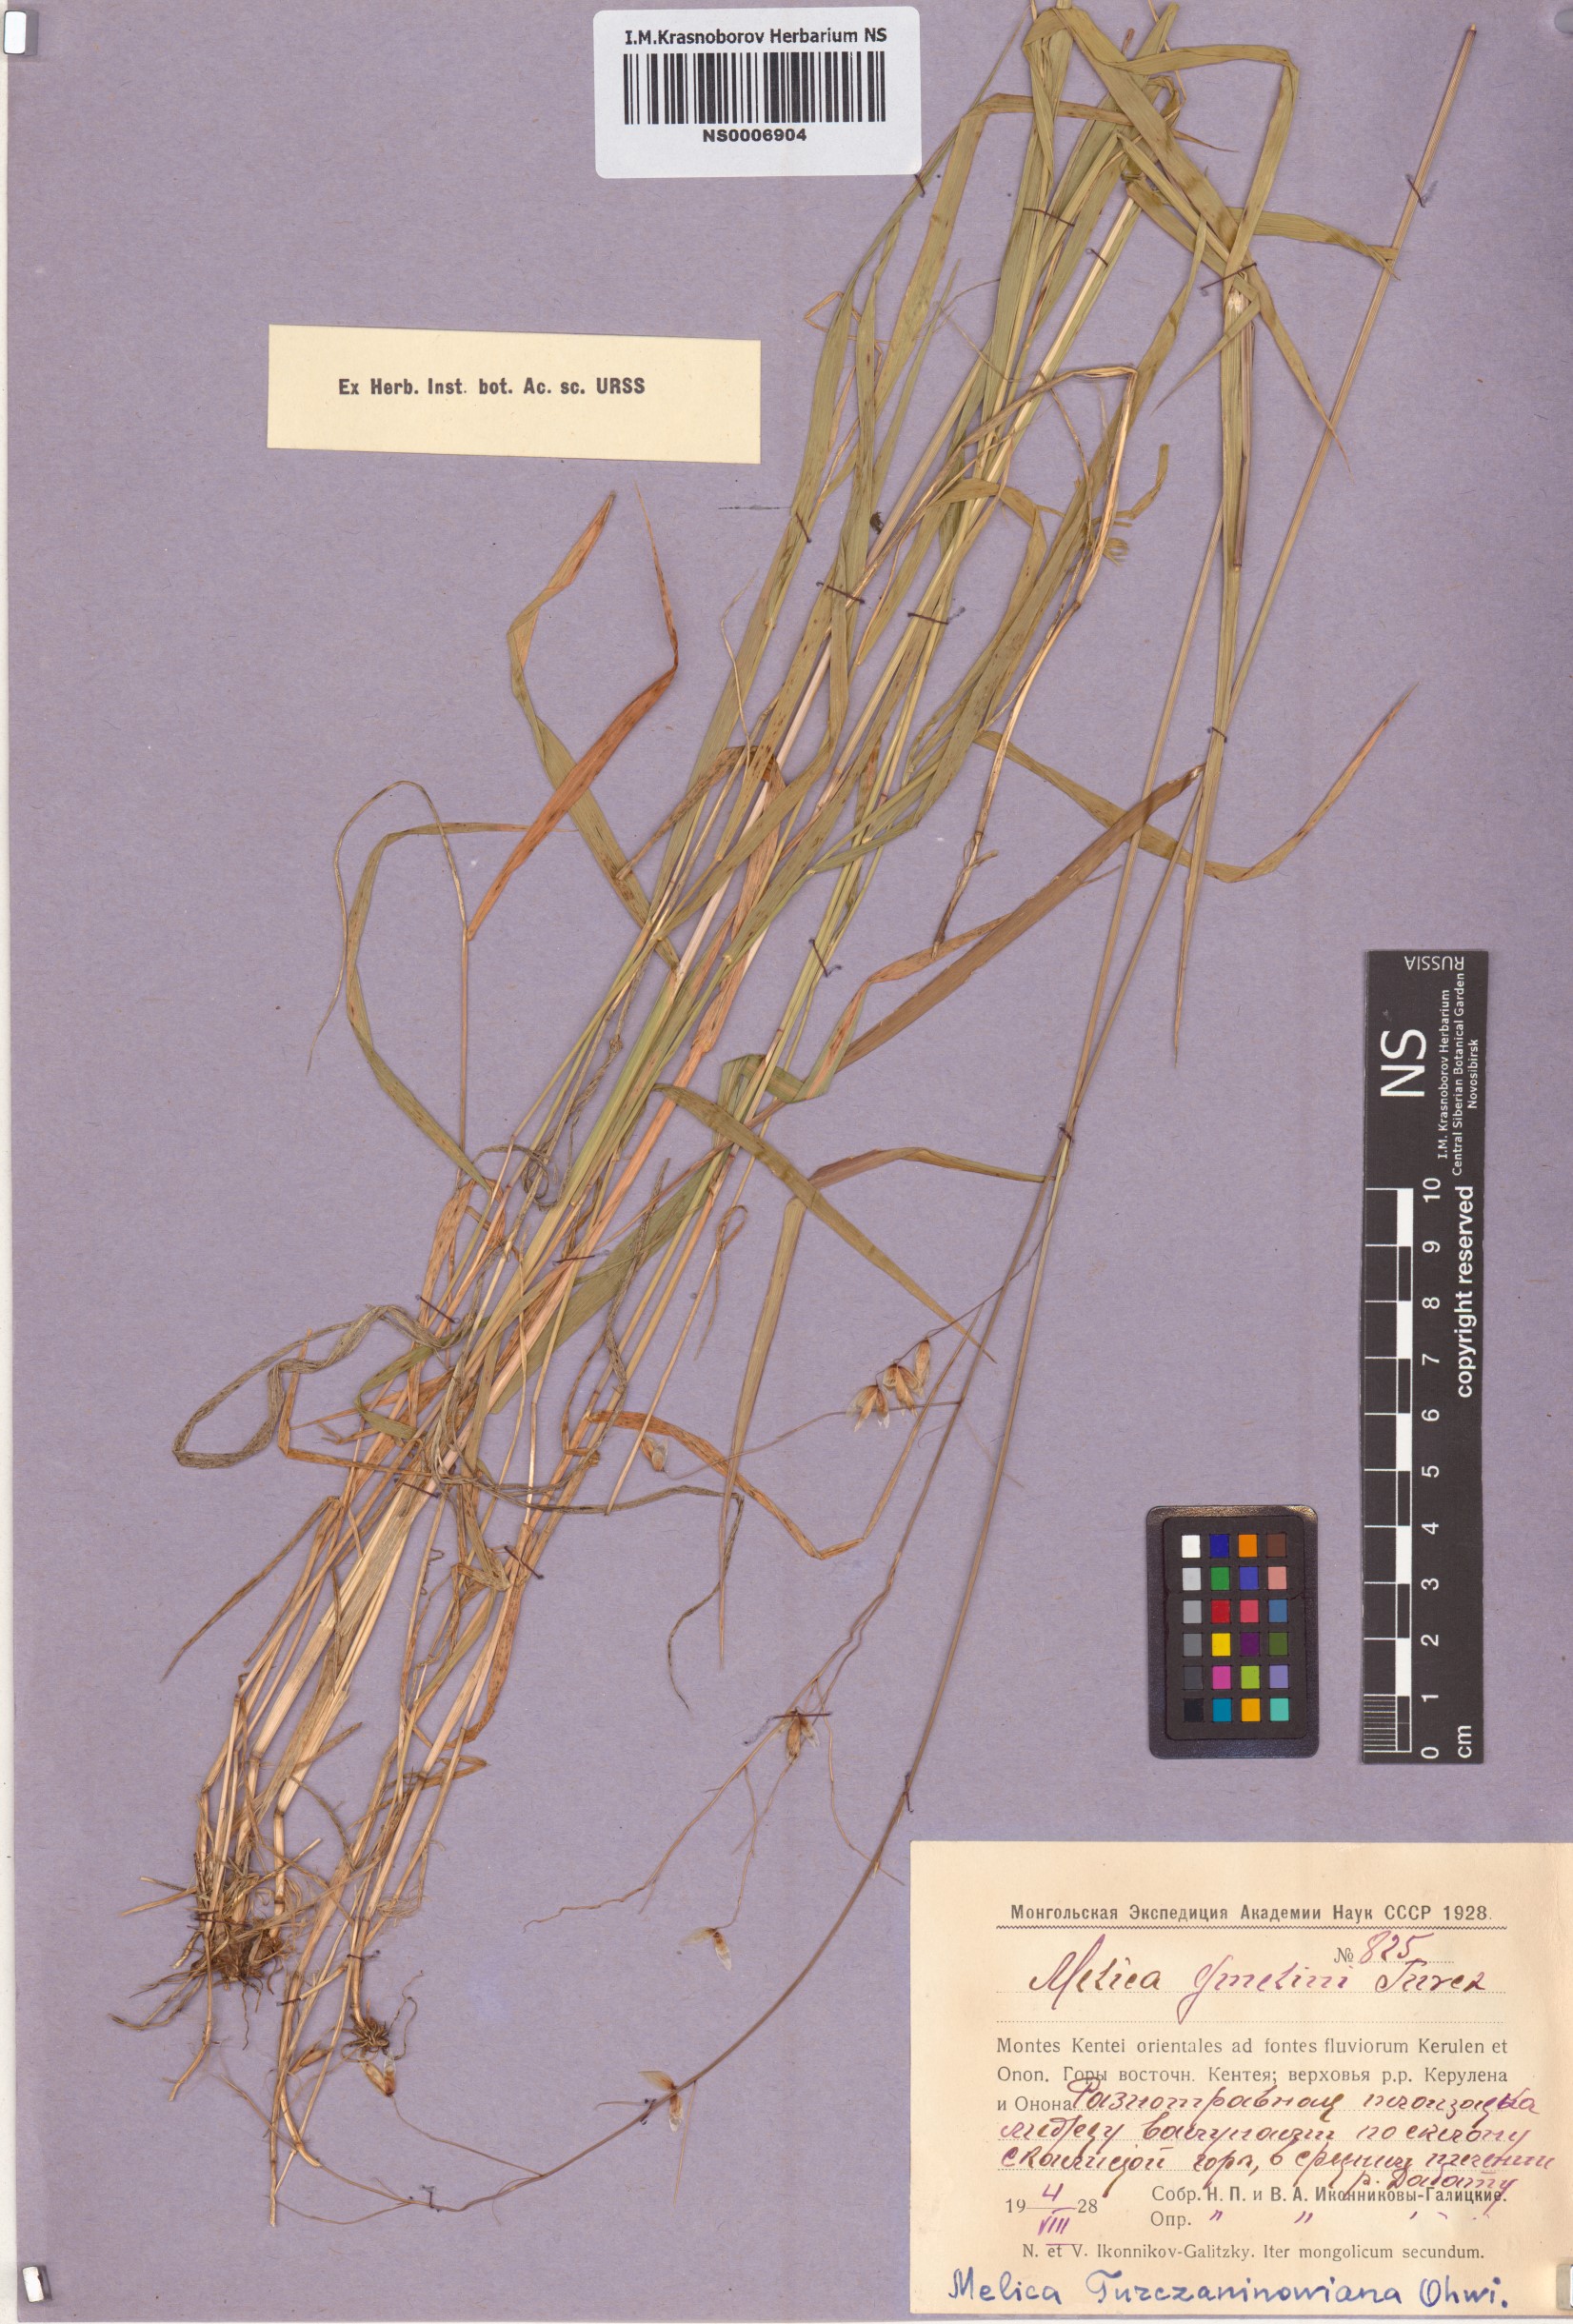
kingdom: Plantae
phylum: Tracheophyta
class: Liliopsida
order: Poales
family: Poaceae
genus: Melica
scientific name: Melica turczaninowiana
